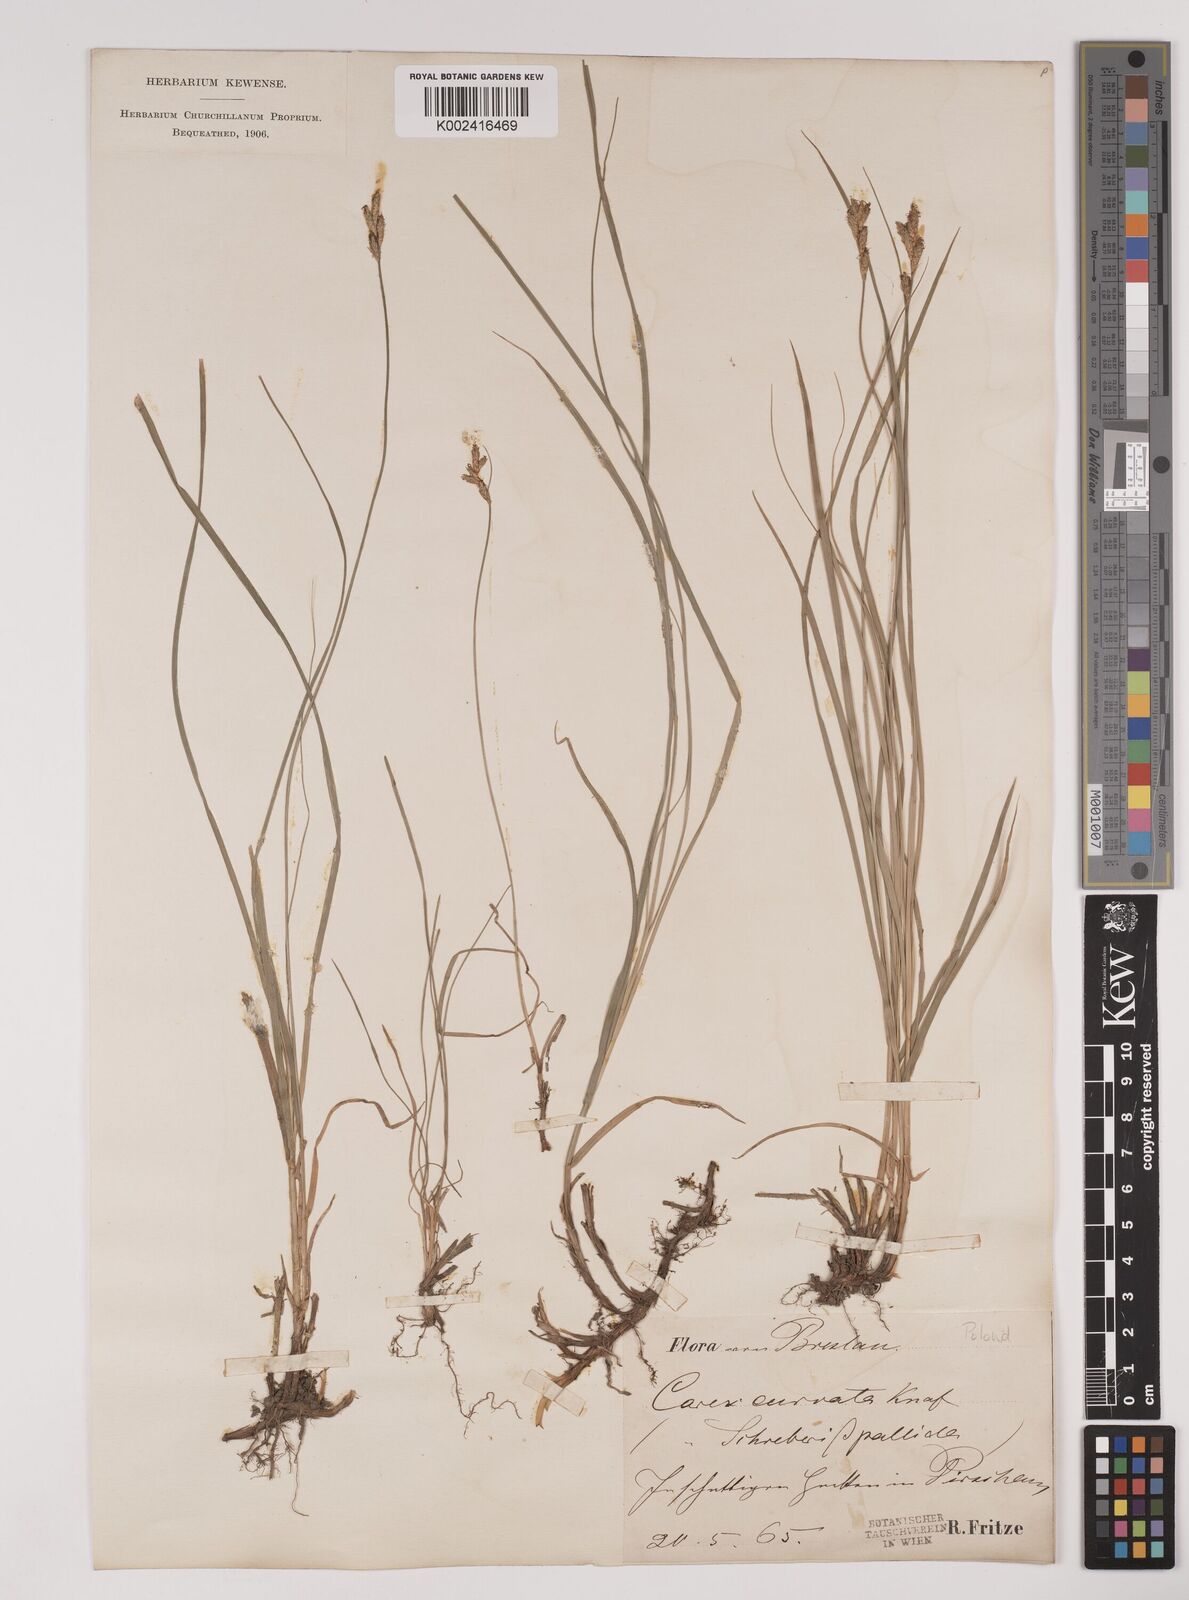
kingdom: Plantae
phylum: Tracheophyta
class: Liliopsida
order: Poales
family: Cyperaceae
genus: Carex
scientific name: Carex brizoides
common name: Quaking-grass sedge
